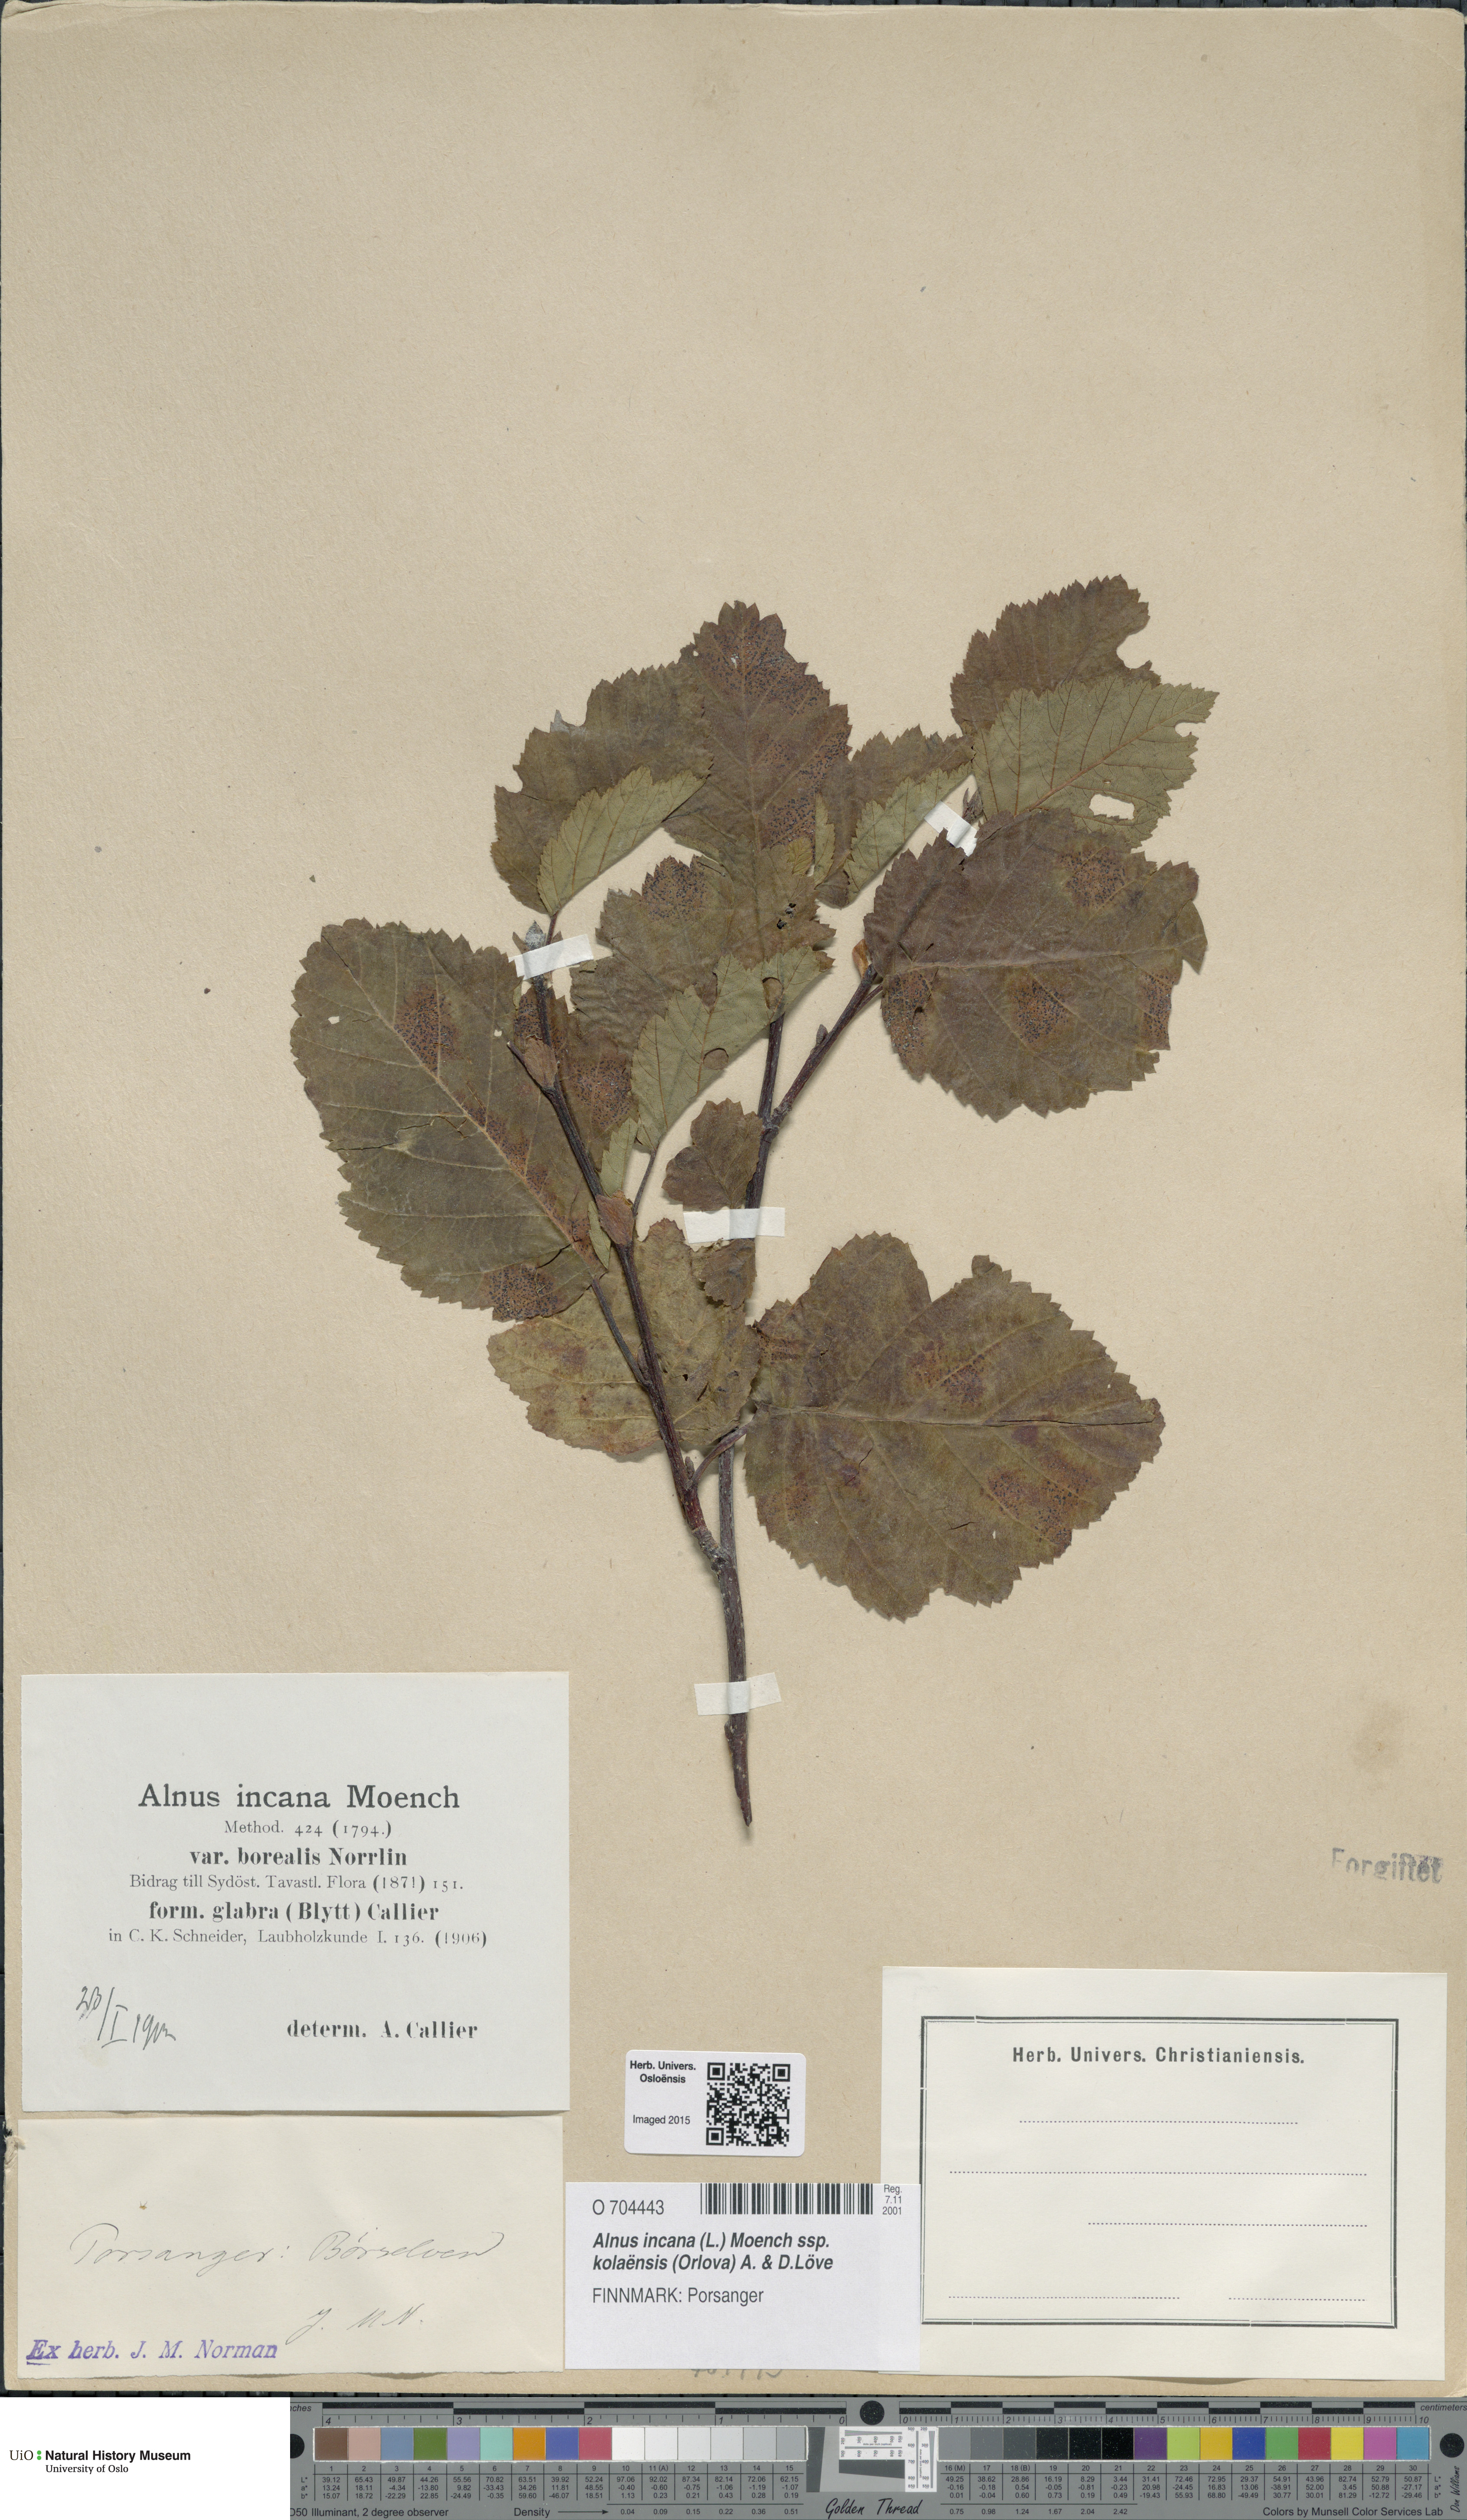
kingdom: Plantae
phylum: Tracheophyta
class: Magnoliopsida
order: Fagales
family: Betulaceae
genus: Alnus
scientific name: Alnus incana
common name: Grey alder
